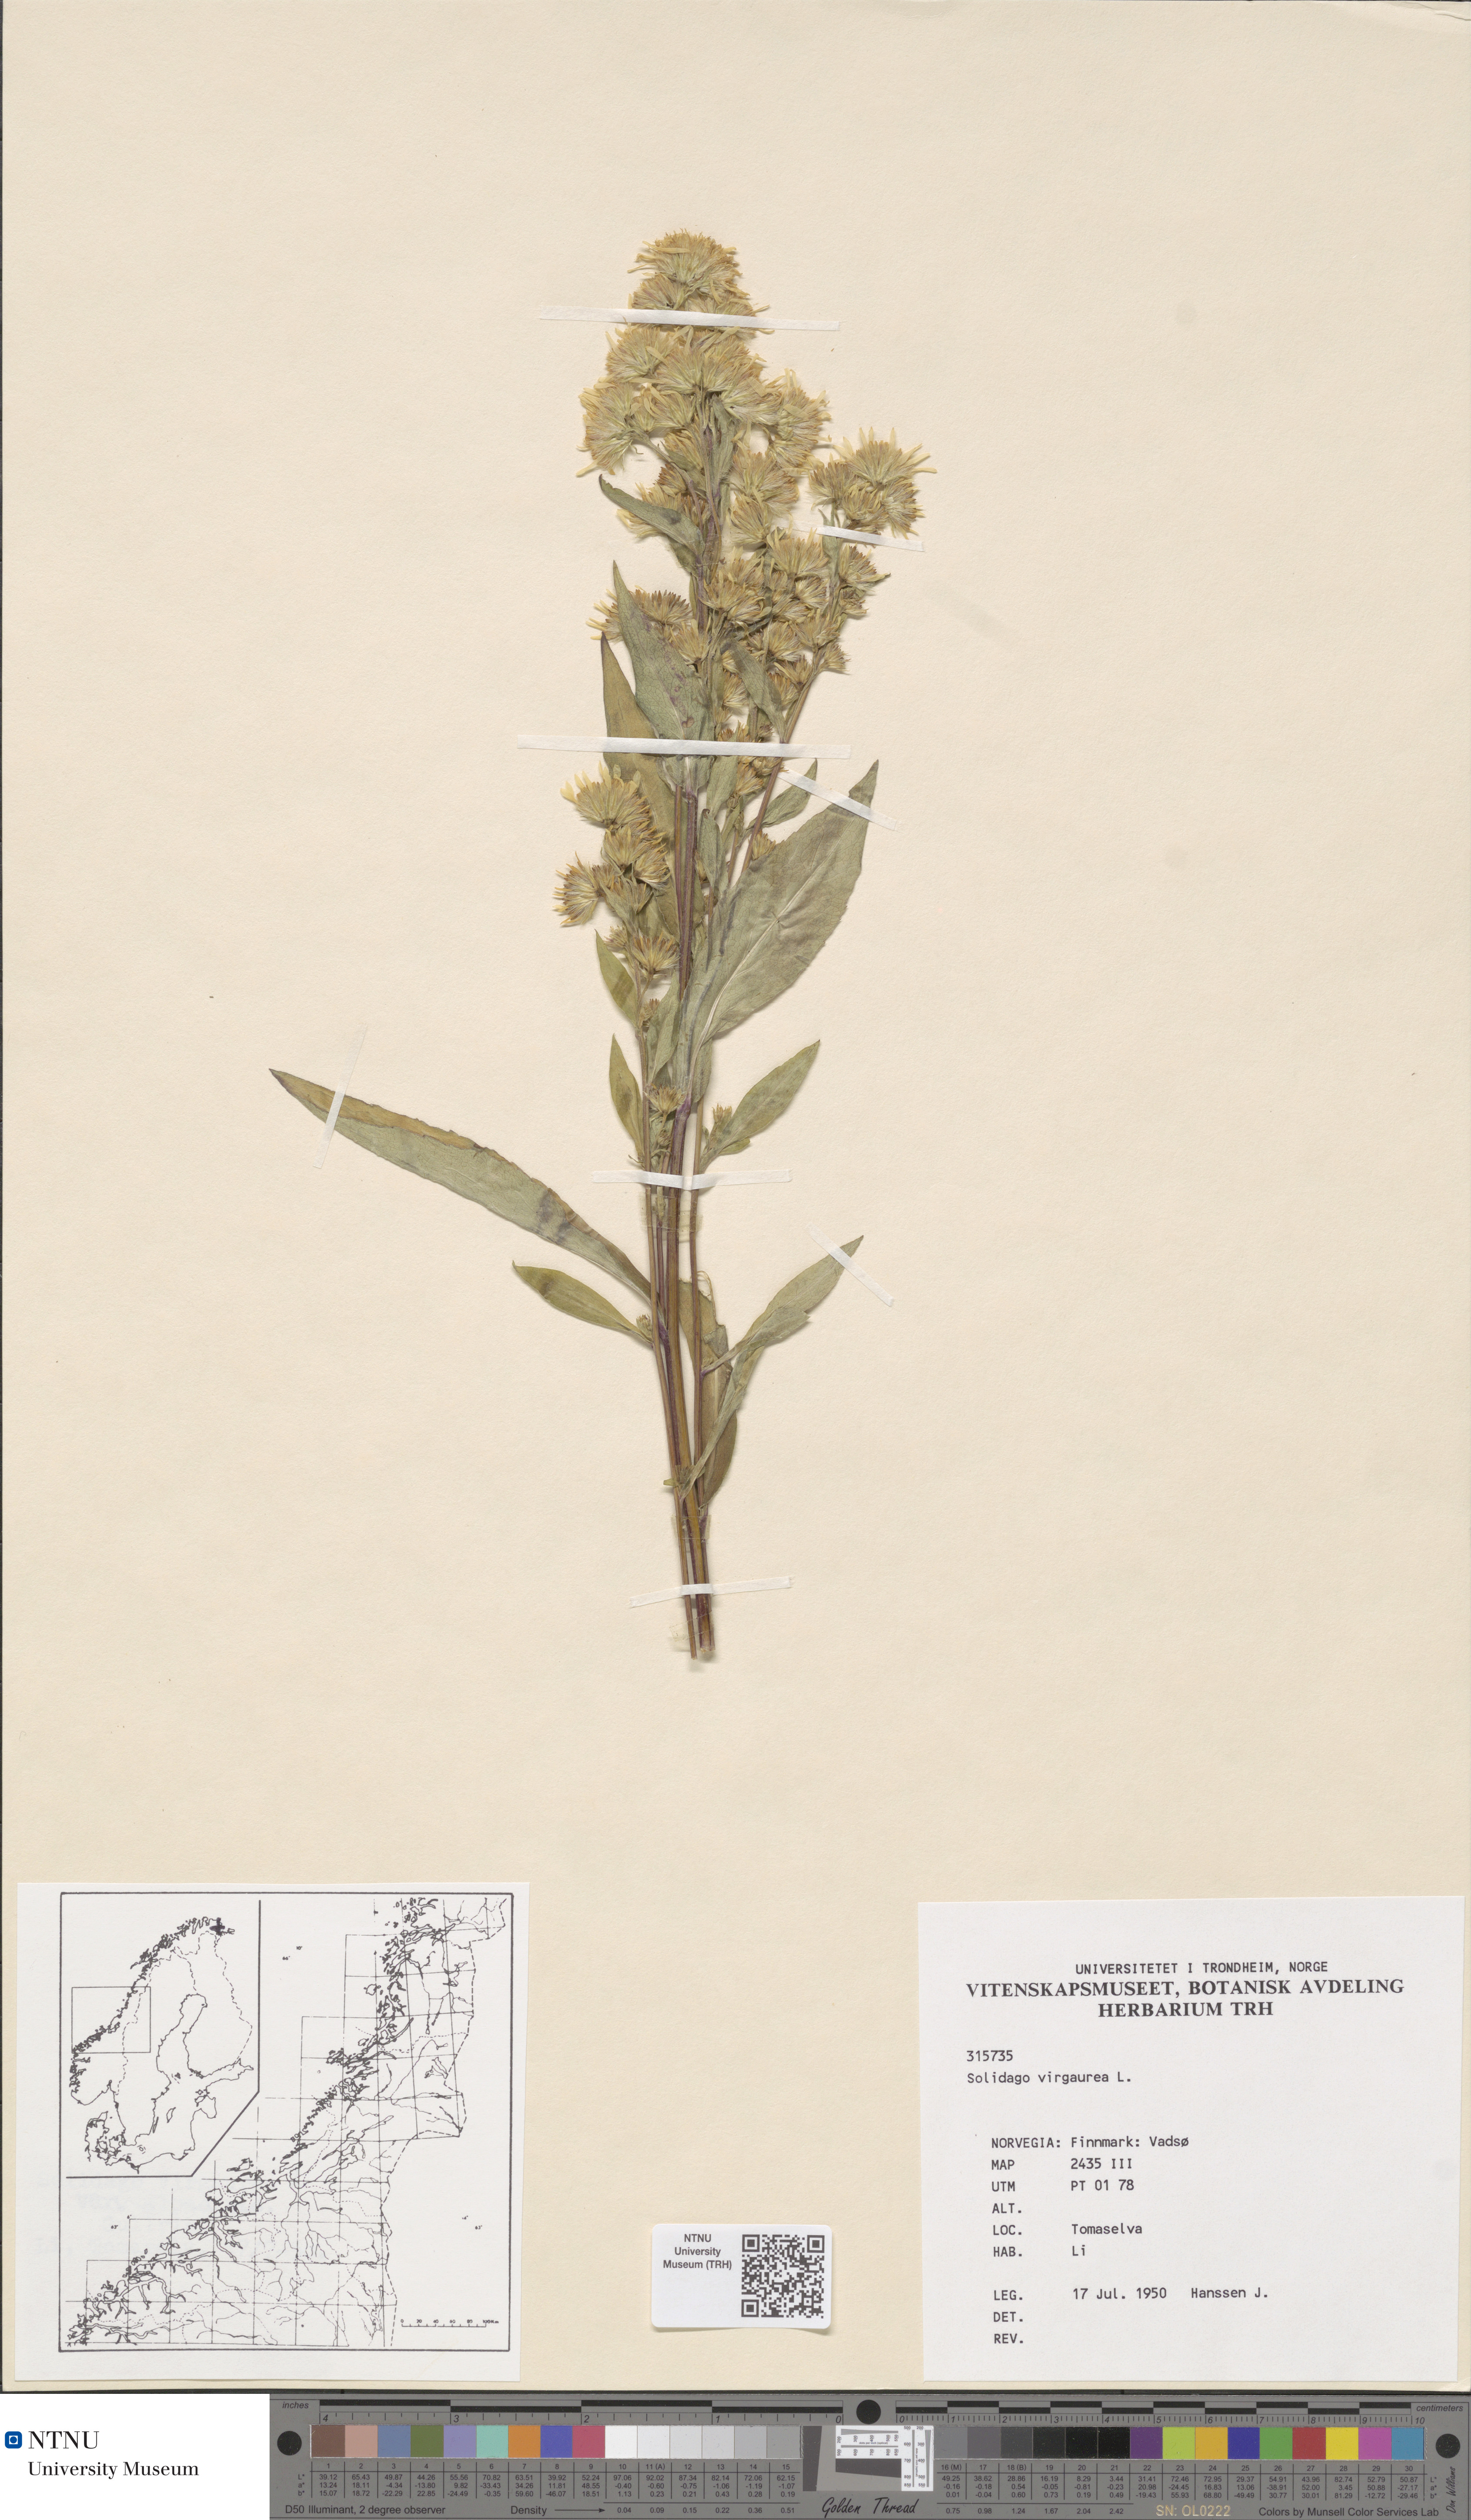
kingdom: Plantae
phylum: Tracheophyta
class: Magnoliopsida
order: Asterales
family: Asteraceae
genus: Solidago
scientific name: Solidago virgaurea
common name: Goldenrod
